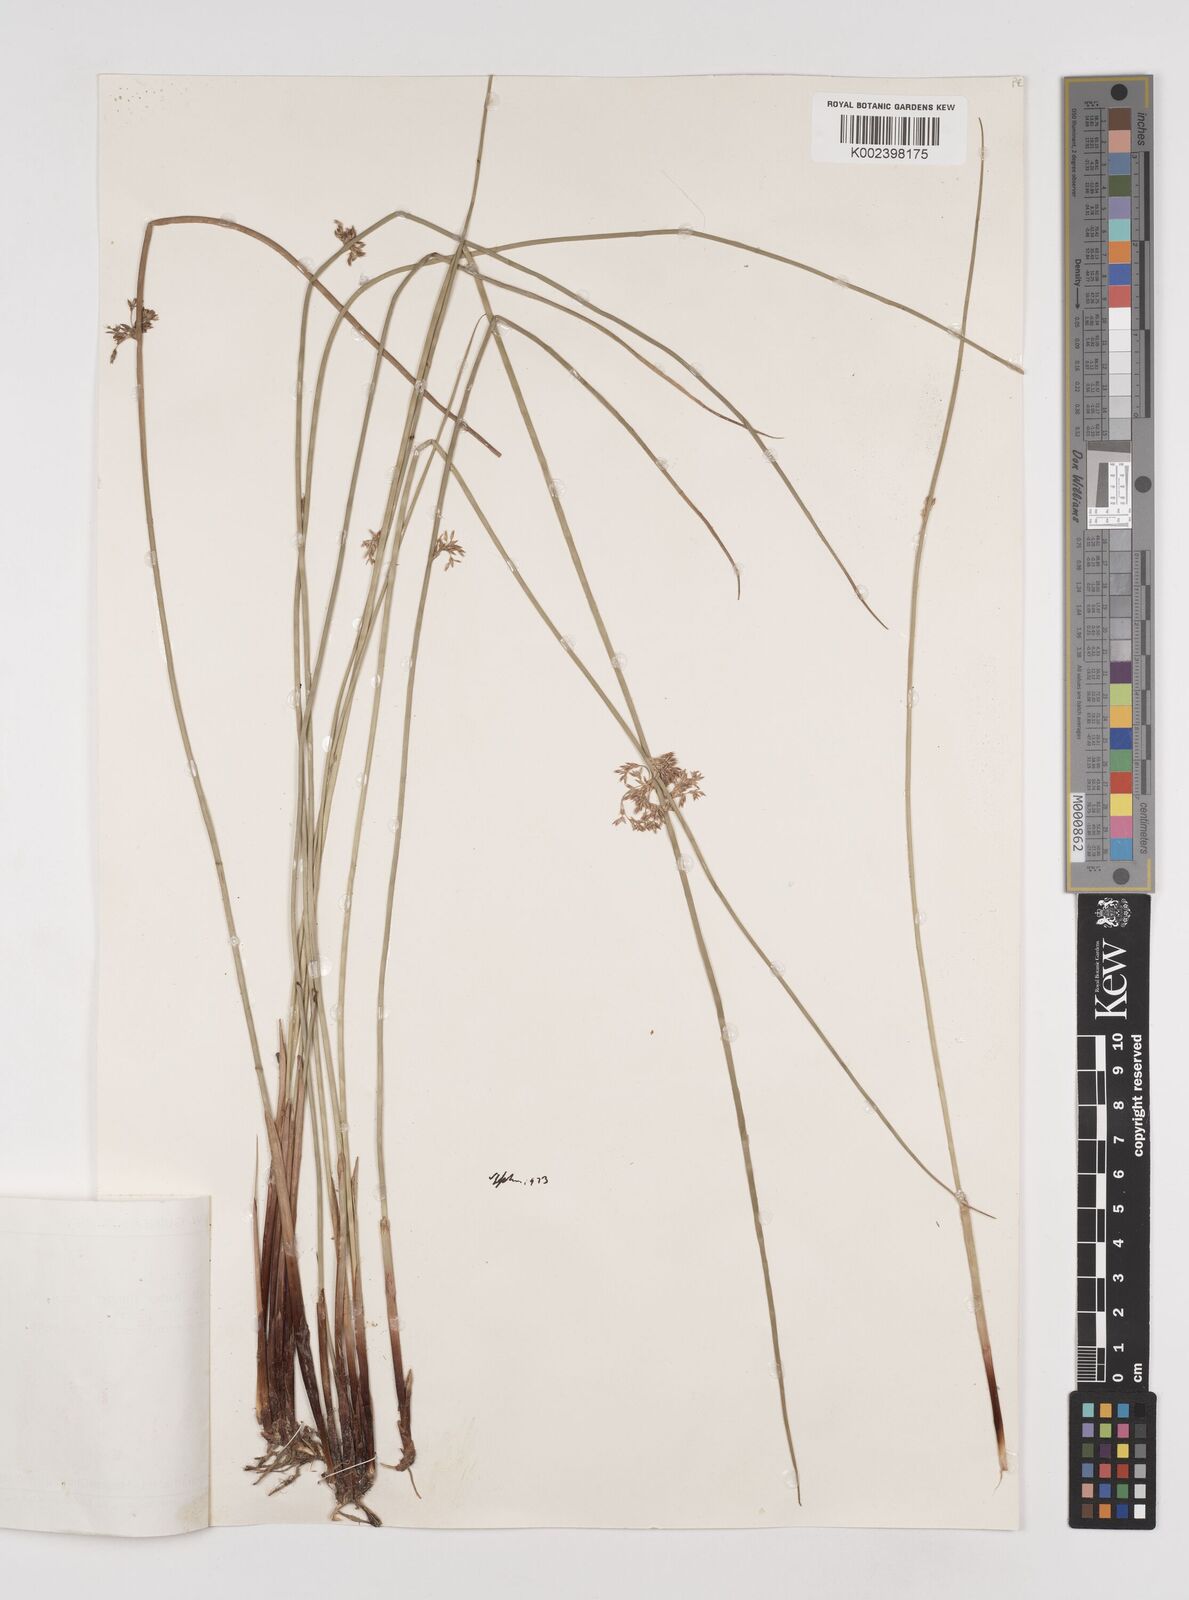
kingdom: Plantae
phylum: Tracheophyta
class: Liliopsida
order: Poales
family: Juncaceae
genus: Juncus
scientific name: Juncus effusus
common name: Soft rush
